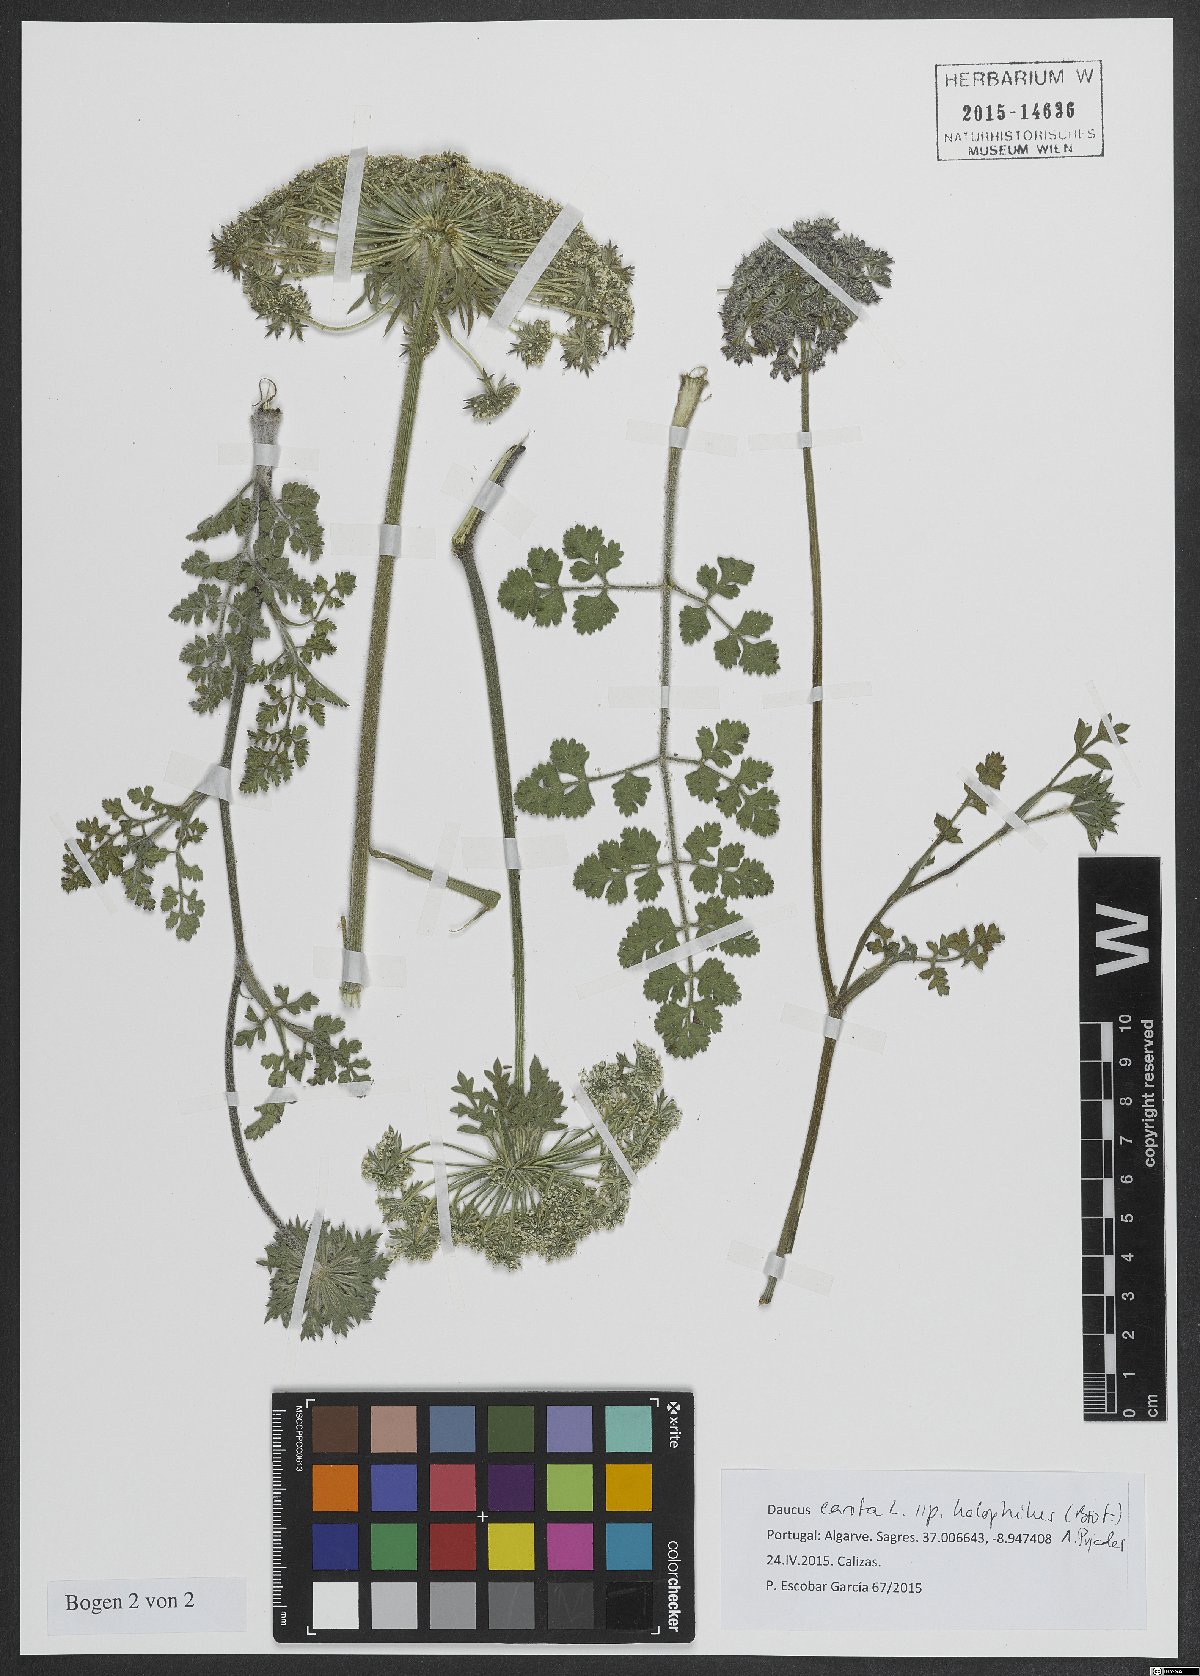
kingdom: Plantae
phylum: Tracheophyta
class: Magnoliopsida
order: Apiales
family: Apiaceae
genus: Daucus
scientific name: Daucus carota
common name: Wild carrot
